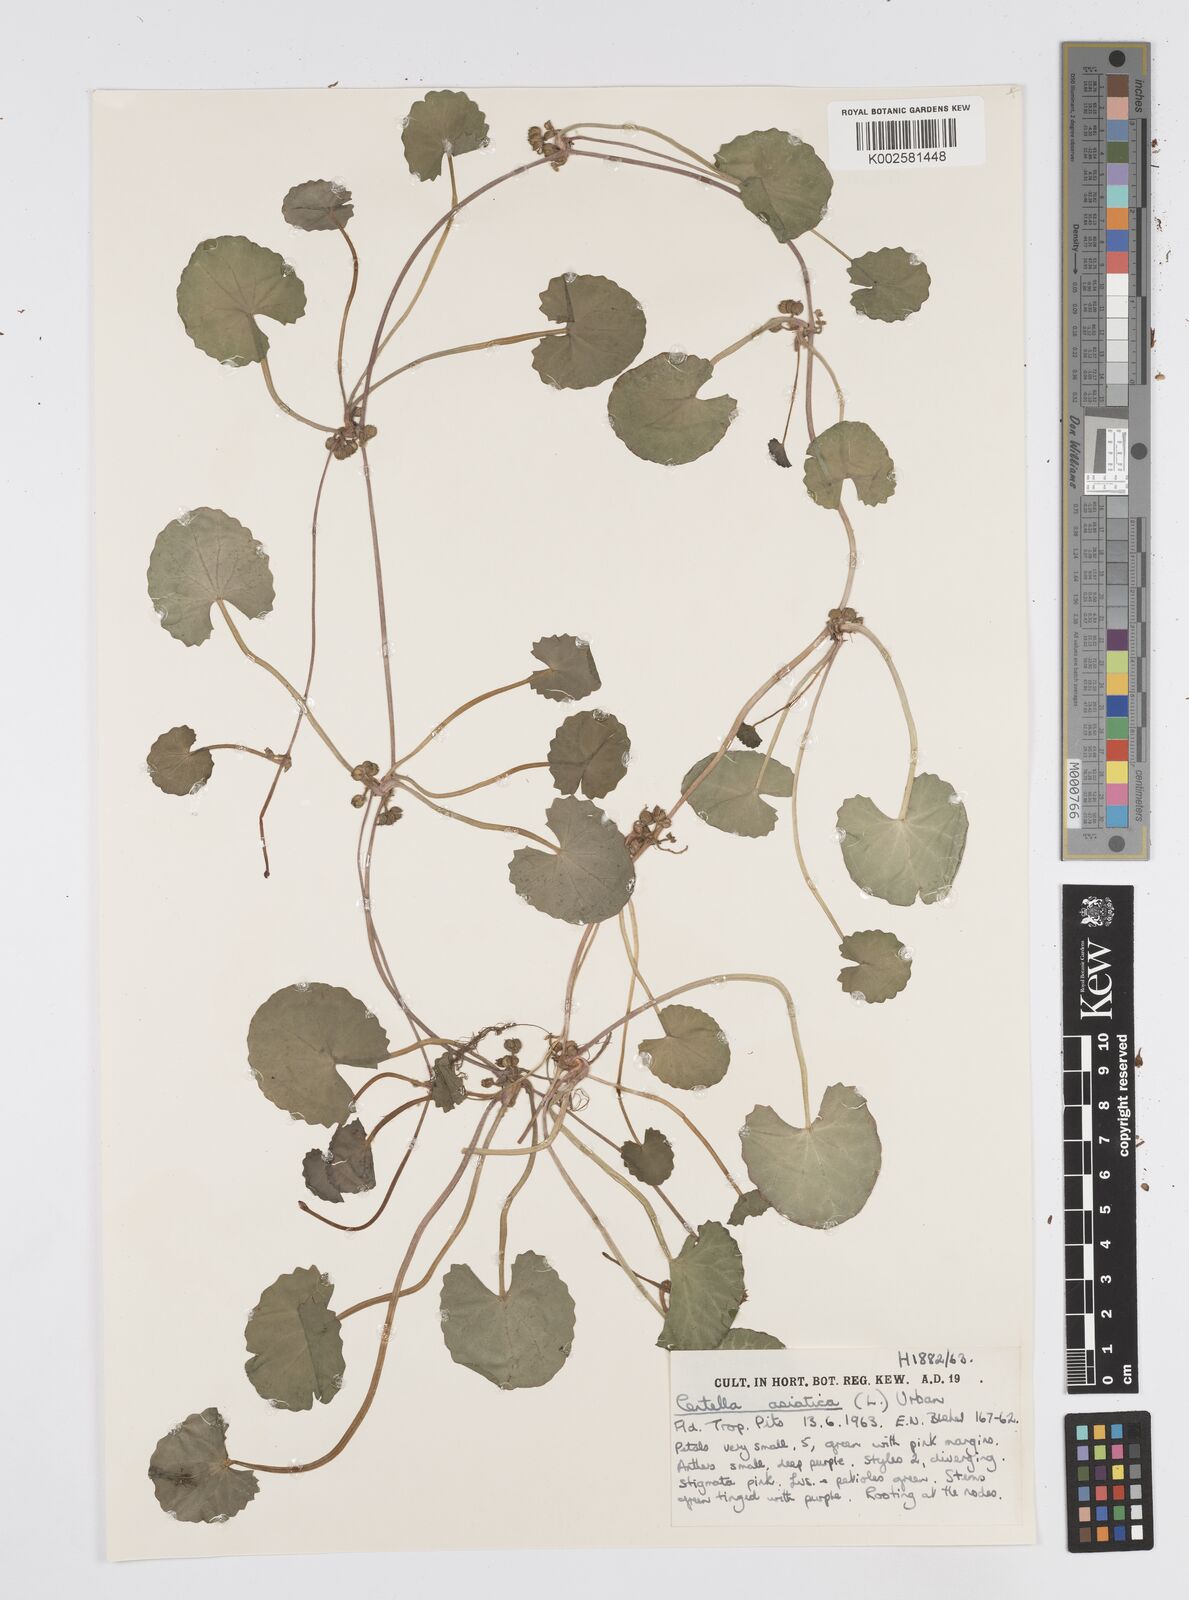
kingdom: Plantae
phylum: Tracheophyta
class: Magnoliopsida
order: Apiales
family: Apiaceae
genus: Centella
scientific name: Centella asiatica
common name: Spadeleaf
